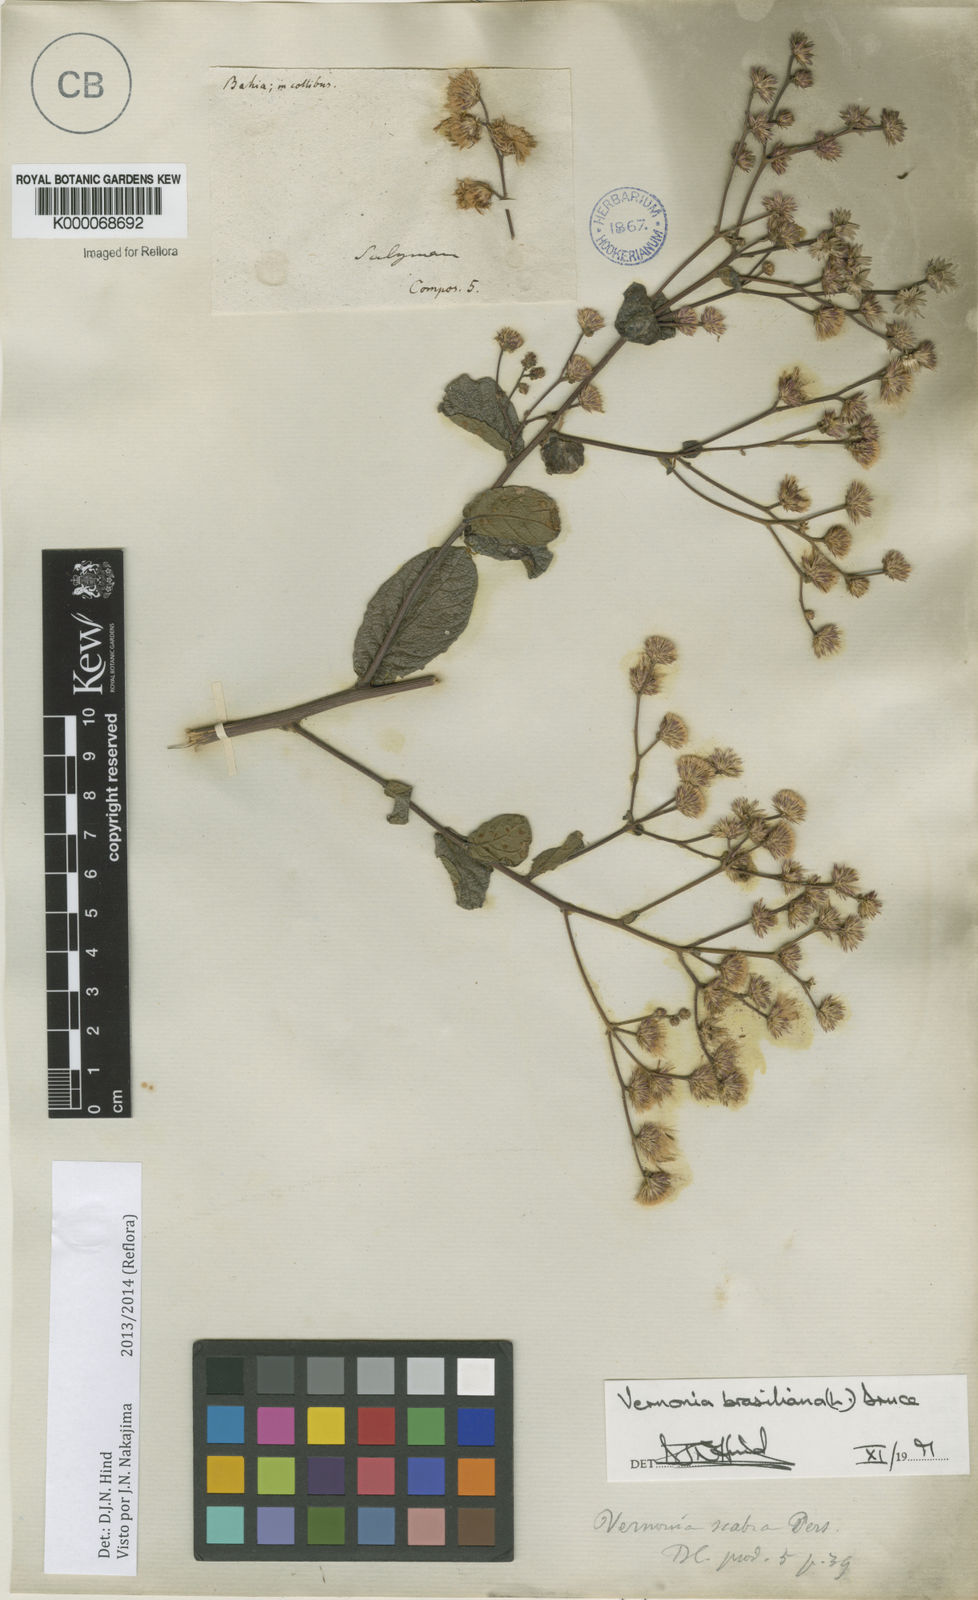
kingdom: Plantae
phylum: Tracheophyta
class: Magnoliopsida
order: Asterales
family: Asteraceae
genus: Vernonanthura
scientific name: Vernonanthura brasiliana
